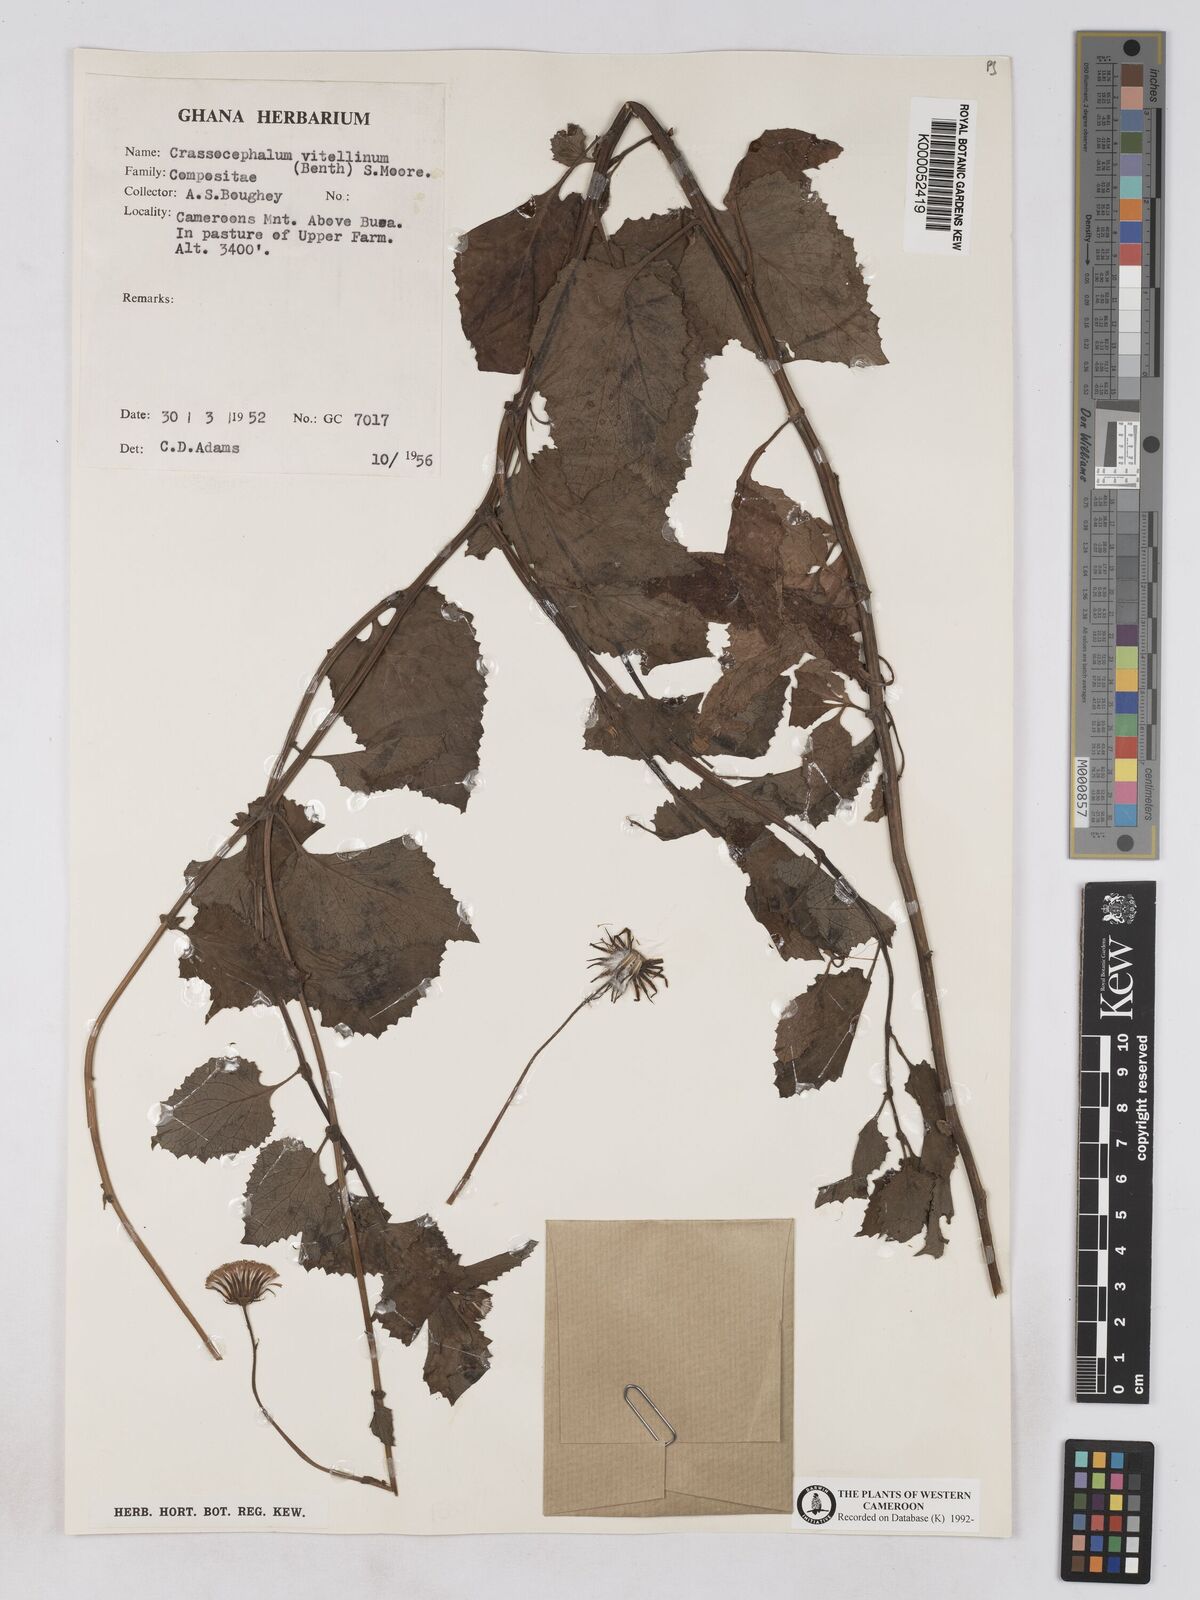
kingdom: Plantae
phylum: Tracheophyta
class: Magnoliopsida
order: Asterales
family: Asteraceae
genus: Crassocephalum
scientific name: Crassocephalum vitellinum
